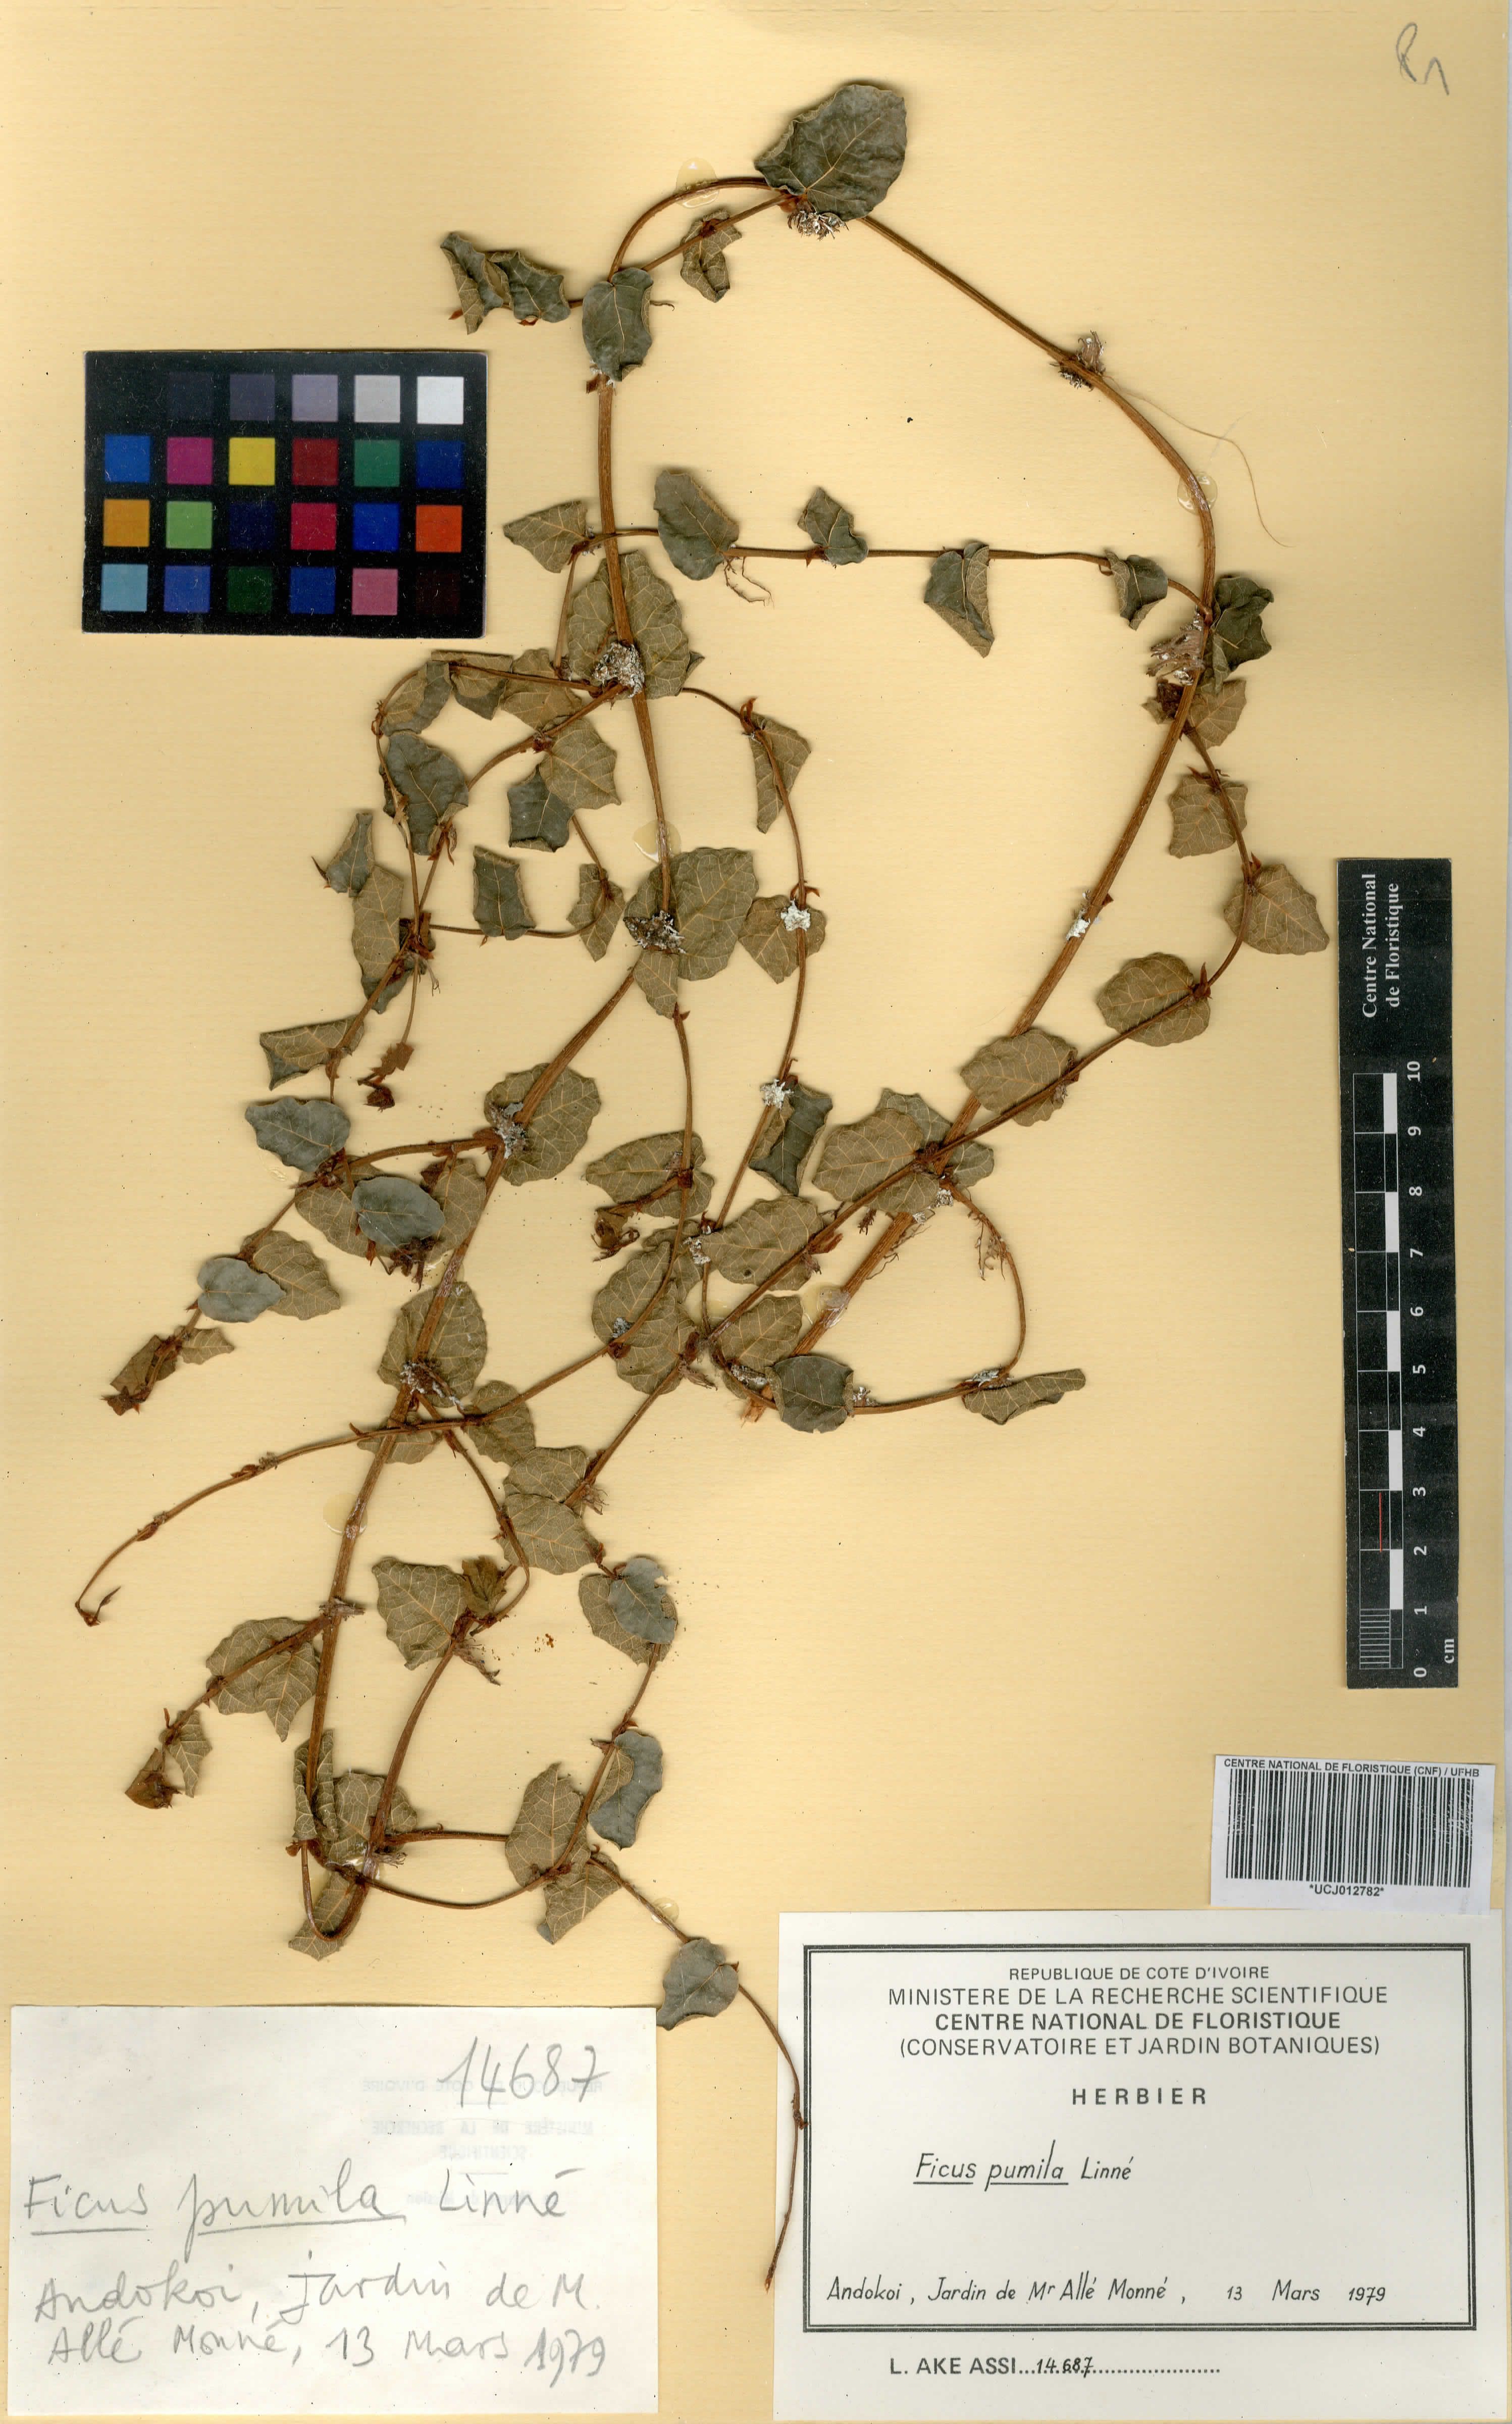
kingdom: Plantae
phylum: Tracheophyta
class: Magnoliopsida
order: Rosales
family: Moraceae
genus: Ficus
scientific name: Ficus pumila
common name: Climbingfig
